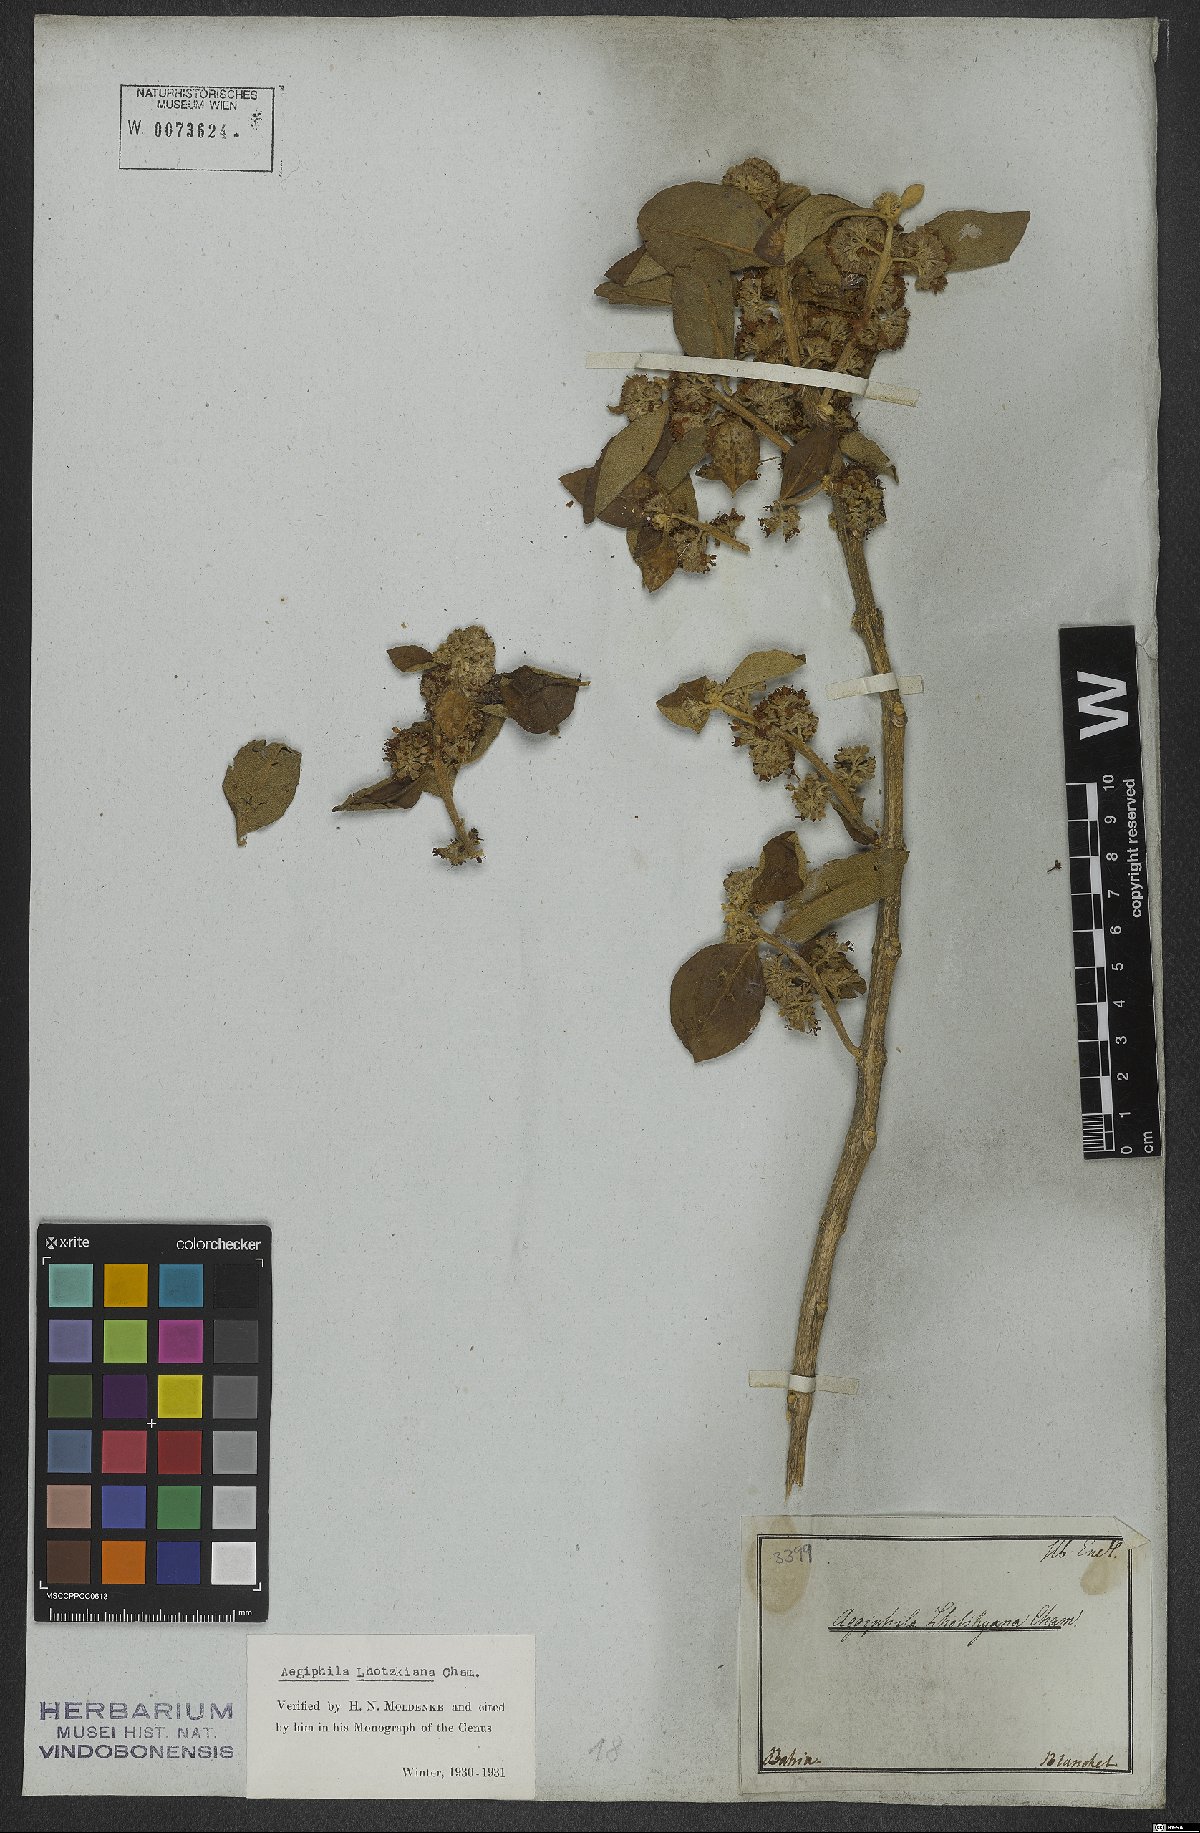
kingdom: Plantae
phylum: Tracheophyta
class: Magnoliopsida
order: Lamiales
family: Lamiaceae
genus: Aegiphila
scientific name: Aegiphila lhotskiana
